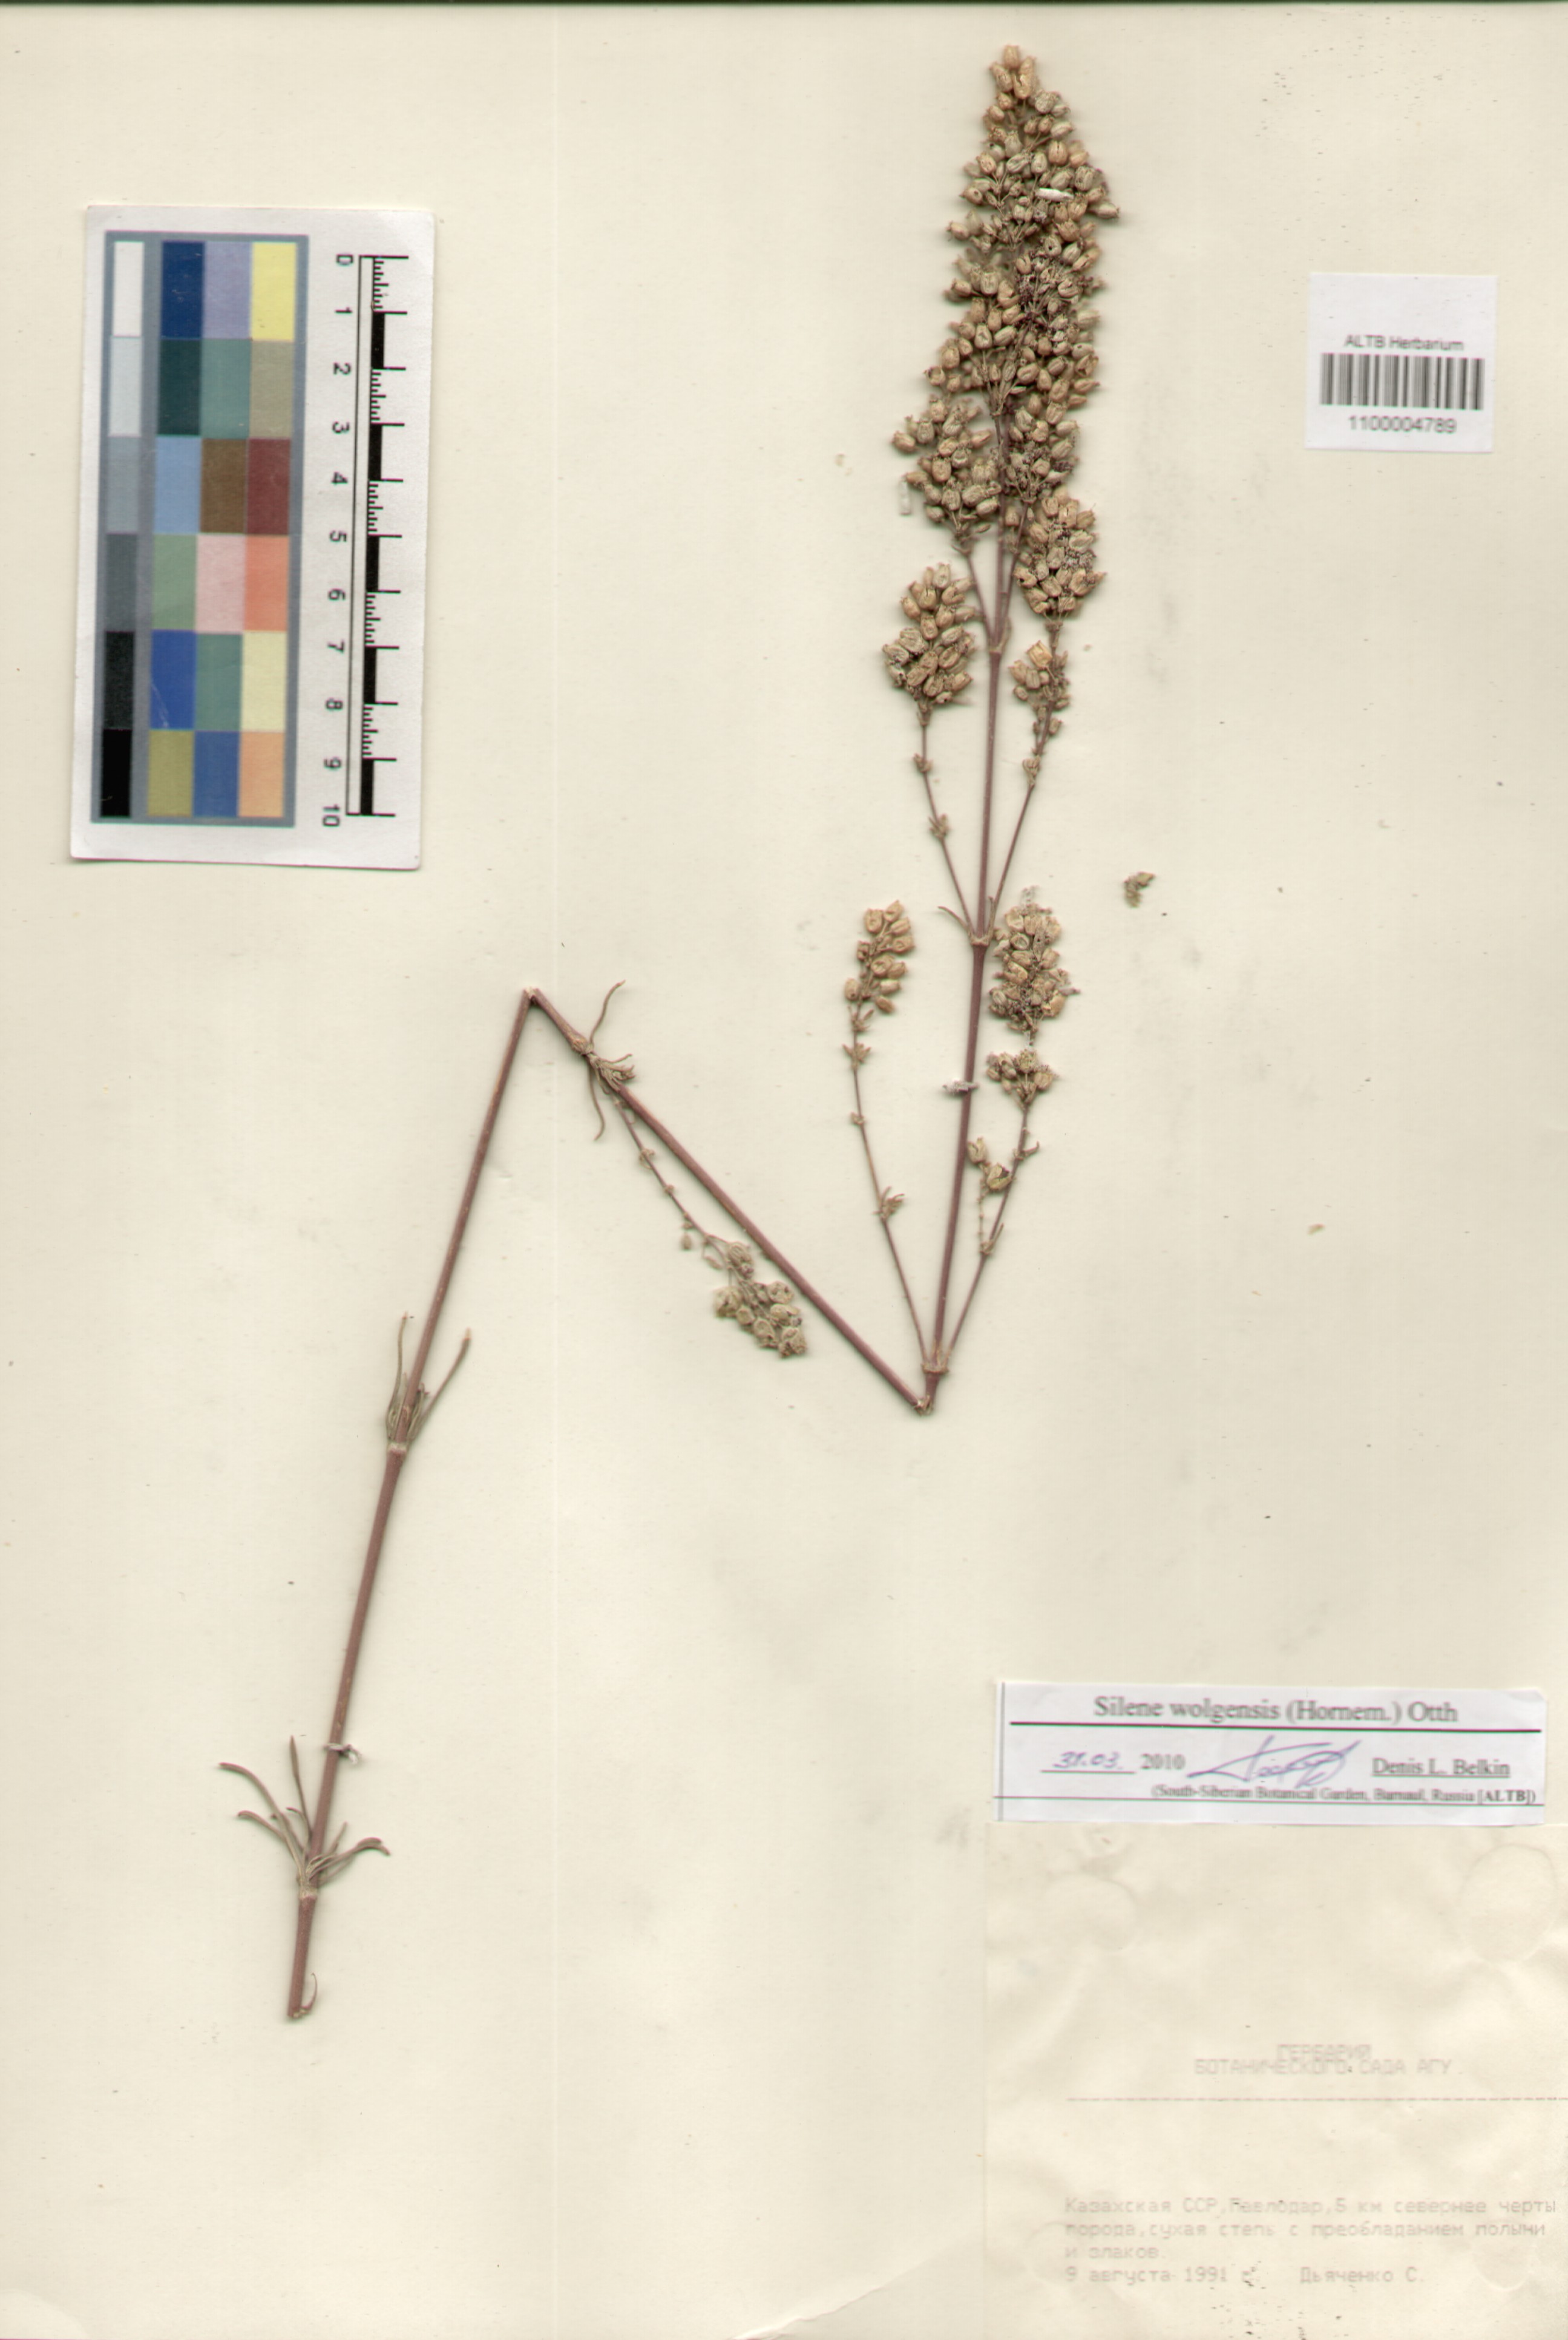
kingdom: Plantae
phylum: Tracheophyta
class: Magnoliopsida
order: Caryophyllales
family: Caryophyllaceae
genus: Silene
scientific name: Silene wolgensis
